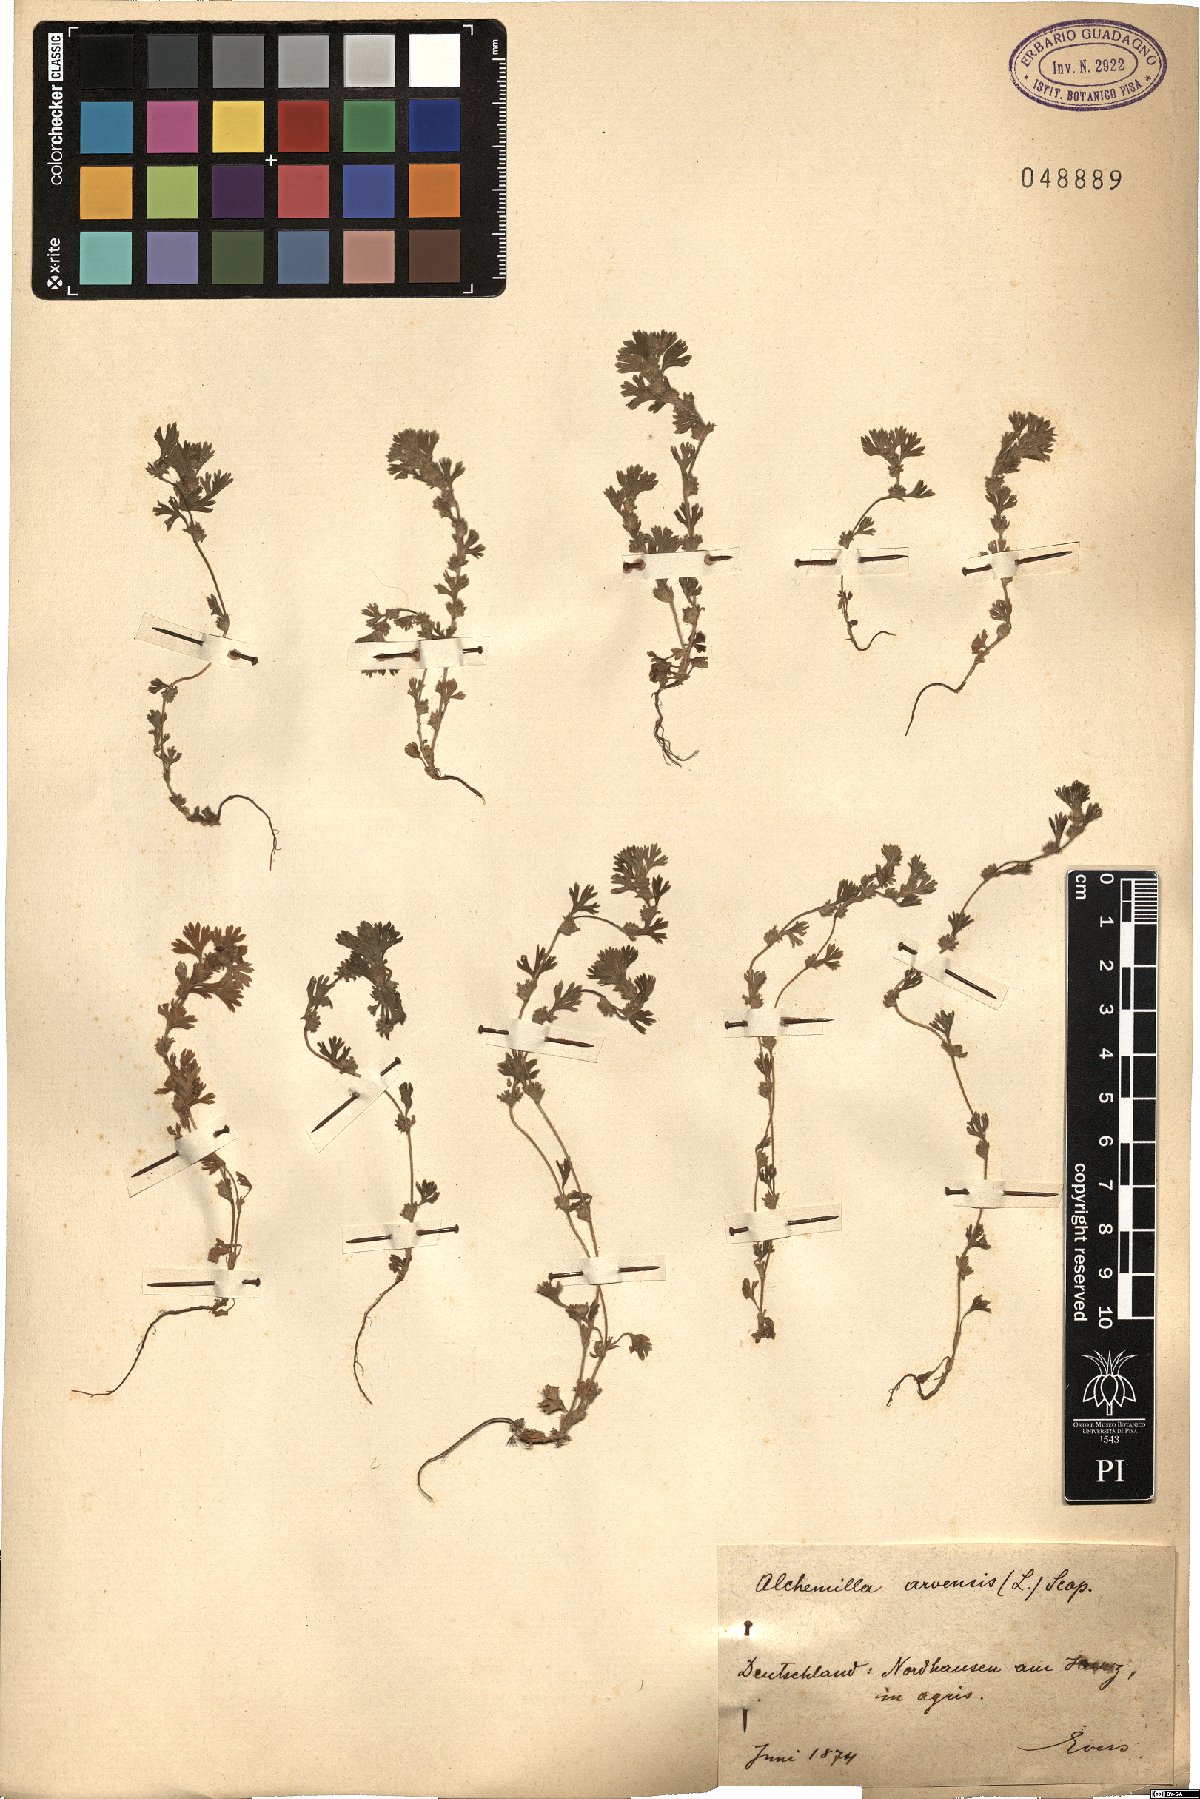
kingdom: Plantae
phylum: Tracheophyta
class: Magnoliopsida
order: Rosales
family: Rosaceae
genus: Aphanes
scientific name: Aphanes arvensis
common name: Parsley-piert
